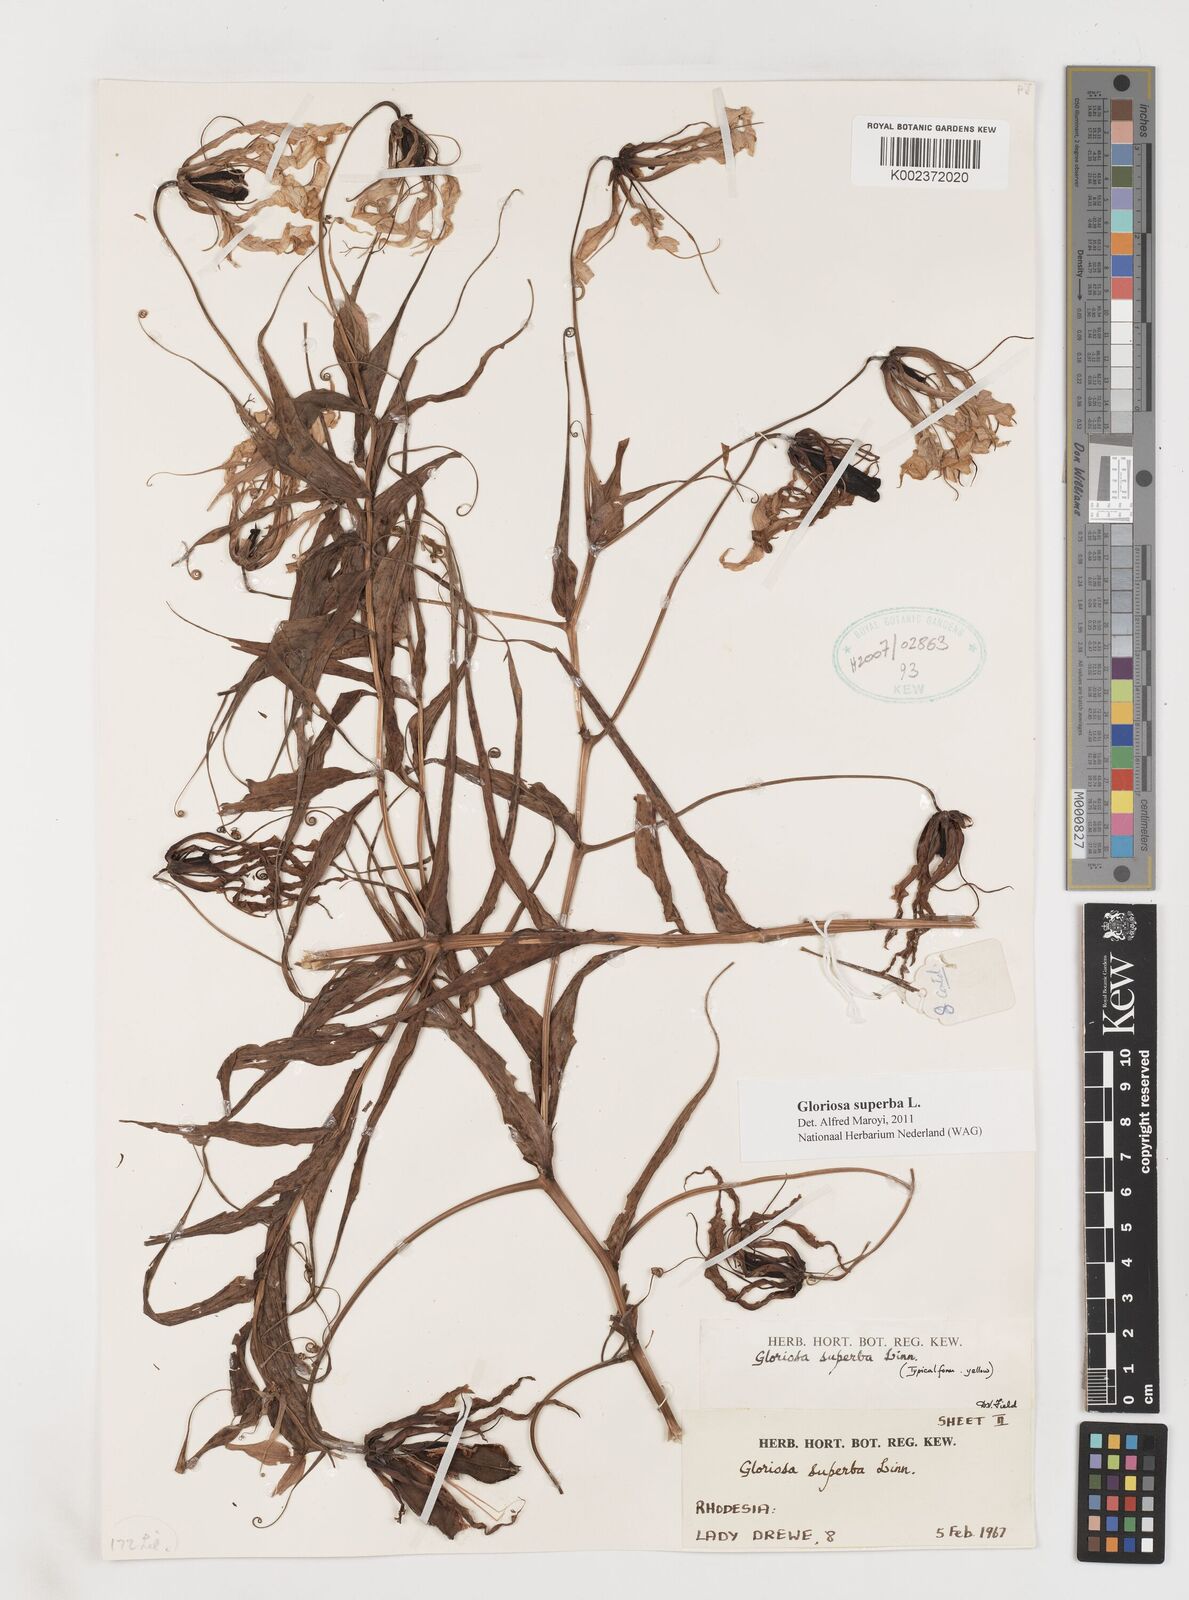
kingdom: Plantae
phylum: Tracheophyta
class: Liliopsida
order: Liliales
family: Colchicaceae
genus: Gloriosa
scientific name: Gloriosa superba
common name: Flame lily
